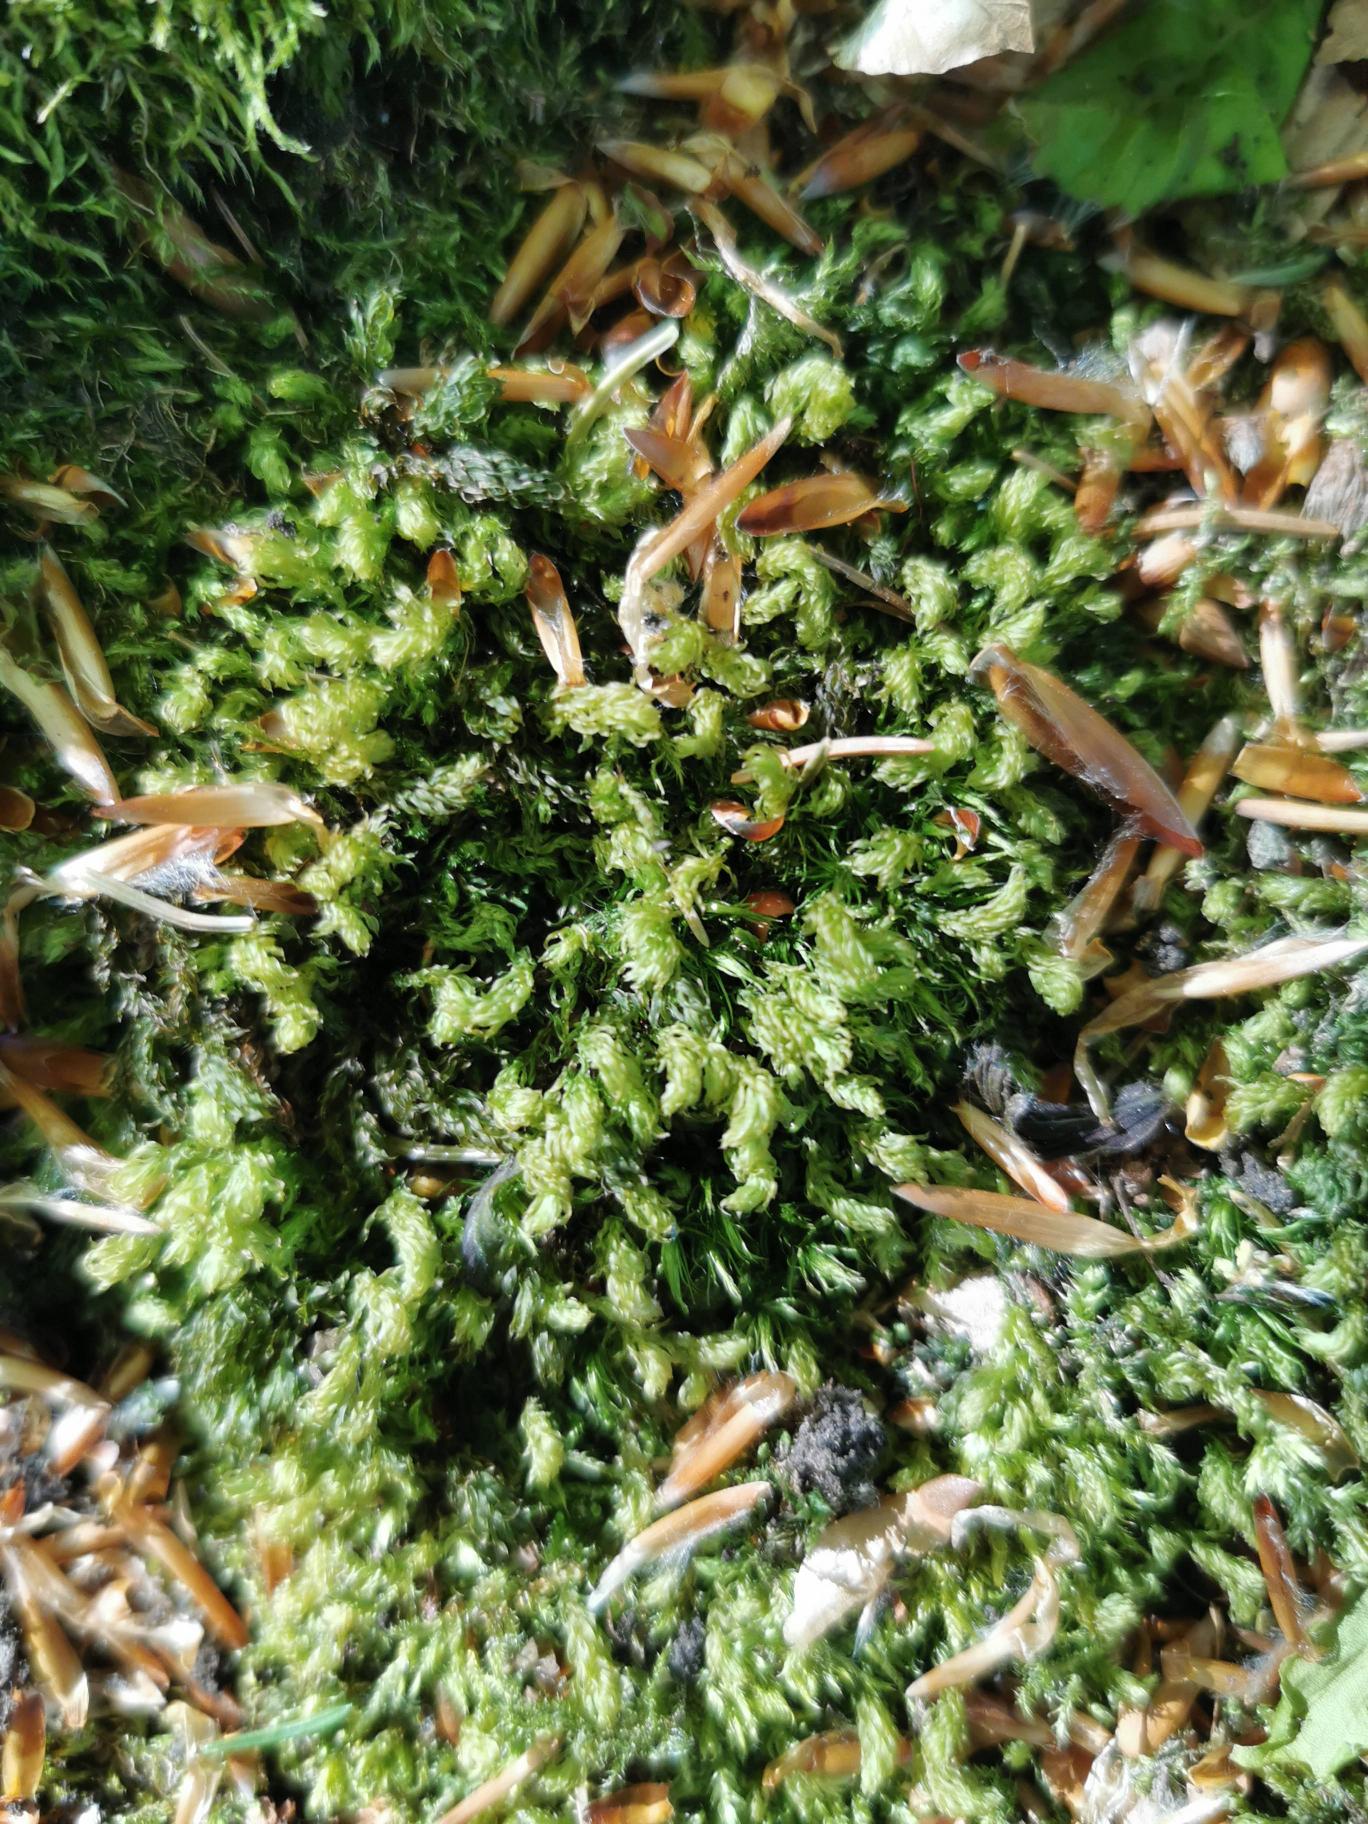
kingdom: Plantae
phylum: Bryophyta
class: Bryopsida
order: Bryales
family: Mniaceae
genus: Mnium
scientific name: Mnium hornum
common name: Brunfiltet stjernemos
